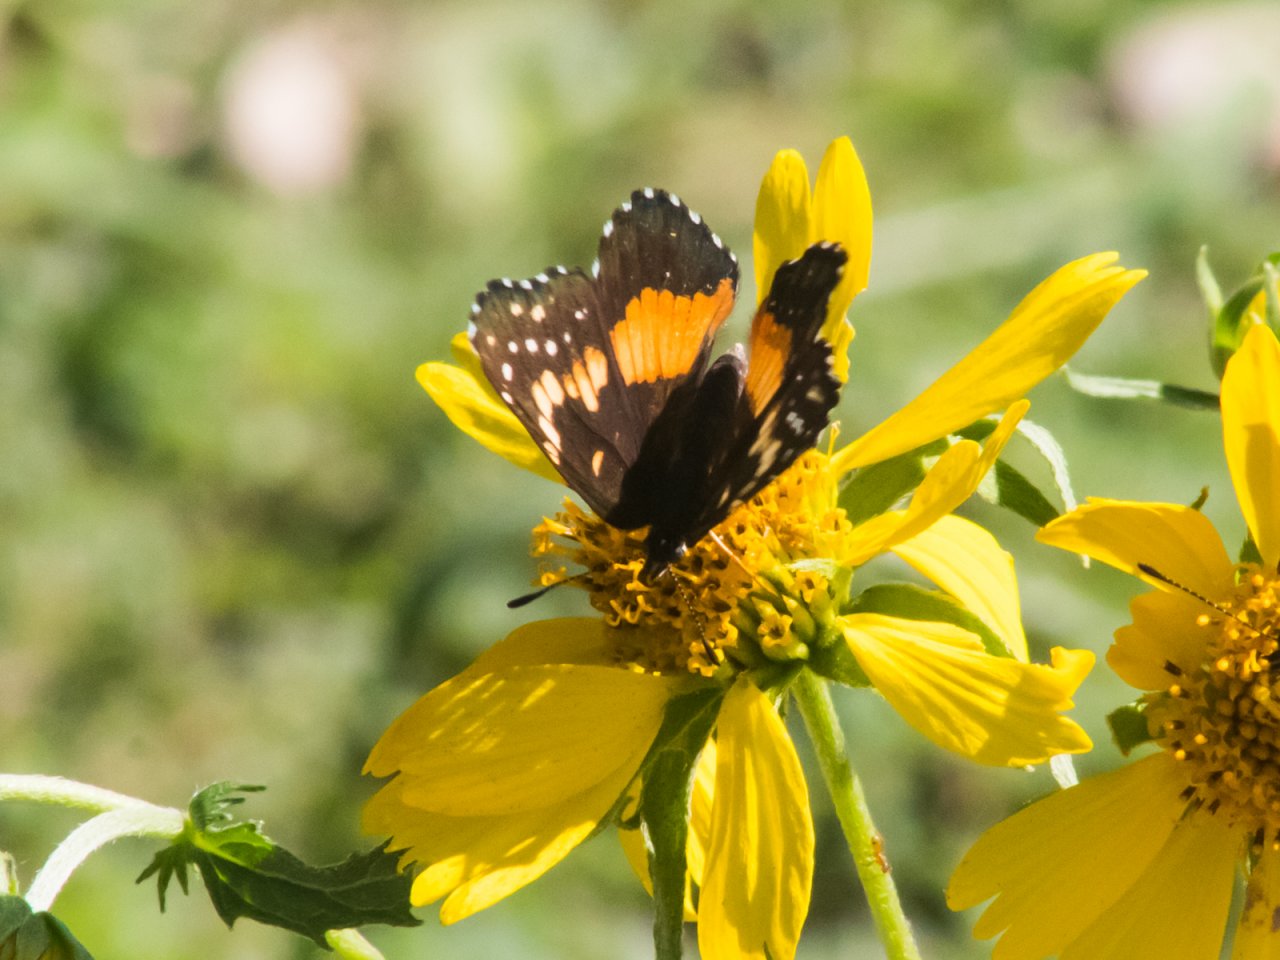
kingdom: Animalia
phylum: Arthropoda
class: Insecta
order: Lepidoptera
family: Nymphalidae
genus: Chlosyne
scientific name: Chlosyne lacinia
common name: Bordered Patch
